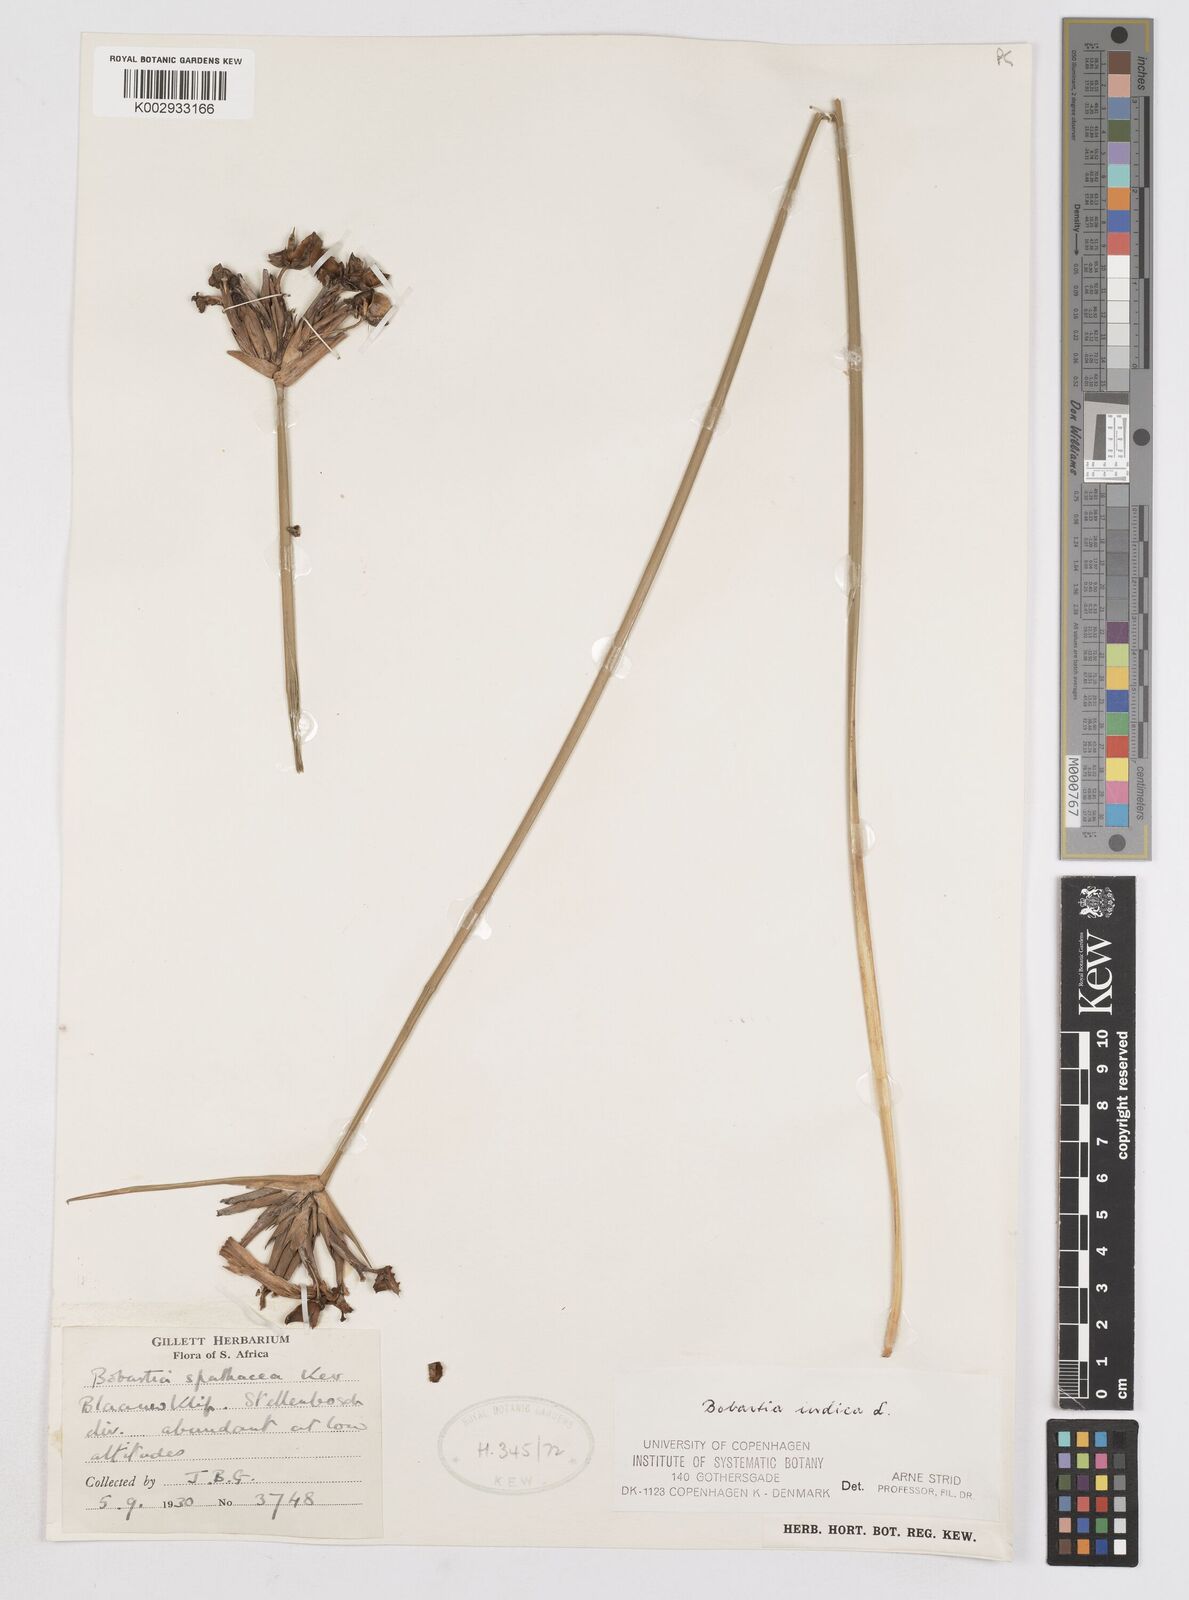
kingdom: Plantae
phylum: Tracheophyta
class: Liliopsida
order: Asparagales
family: Iridaceae
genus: Bobartia
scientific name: Bobartia indica
